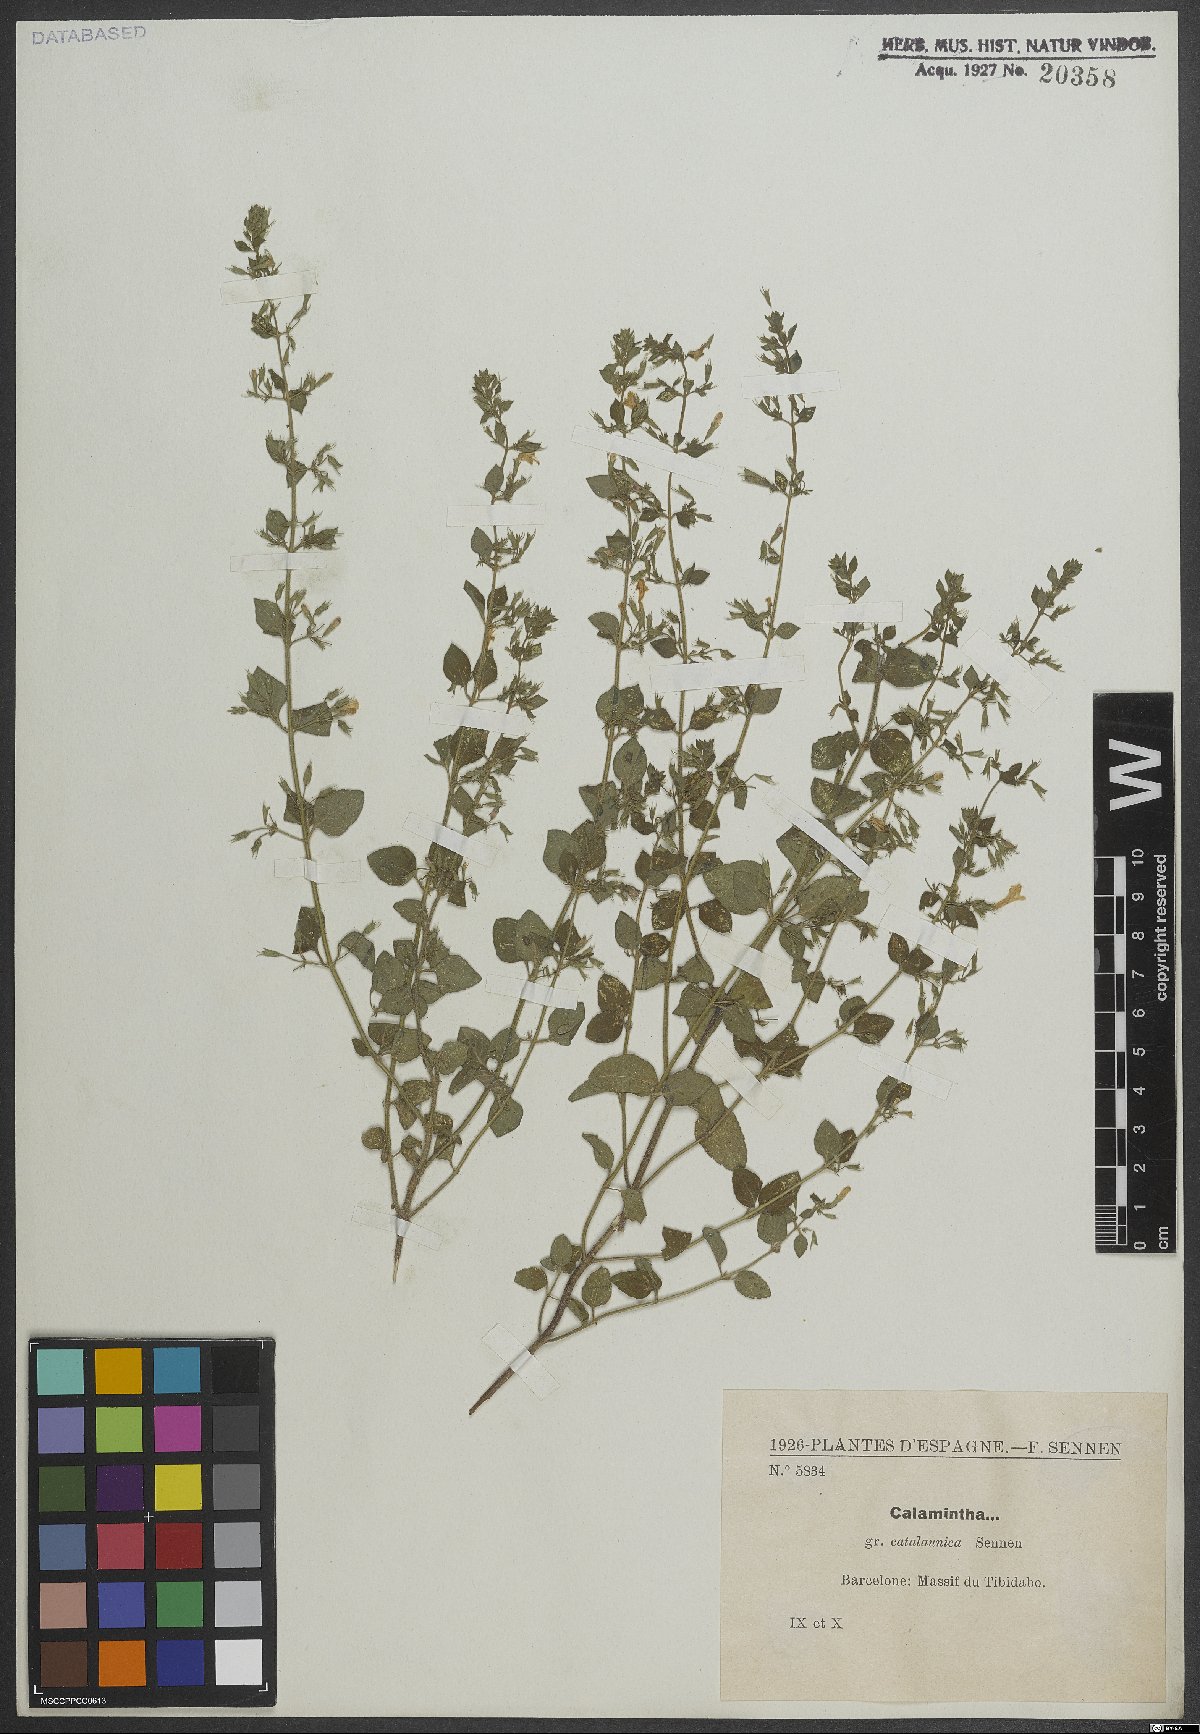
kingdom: Plantae
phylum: Tracheophyta
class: Magnoliopsida
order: Lamiales
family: Lamiaceae
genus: Clinopodium
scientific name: Clinopodium nepeta
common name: Lesser calamint
